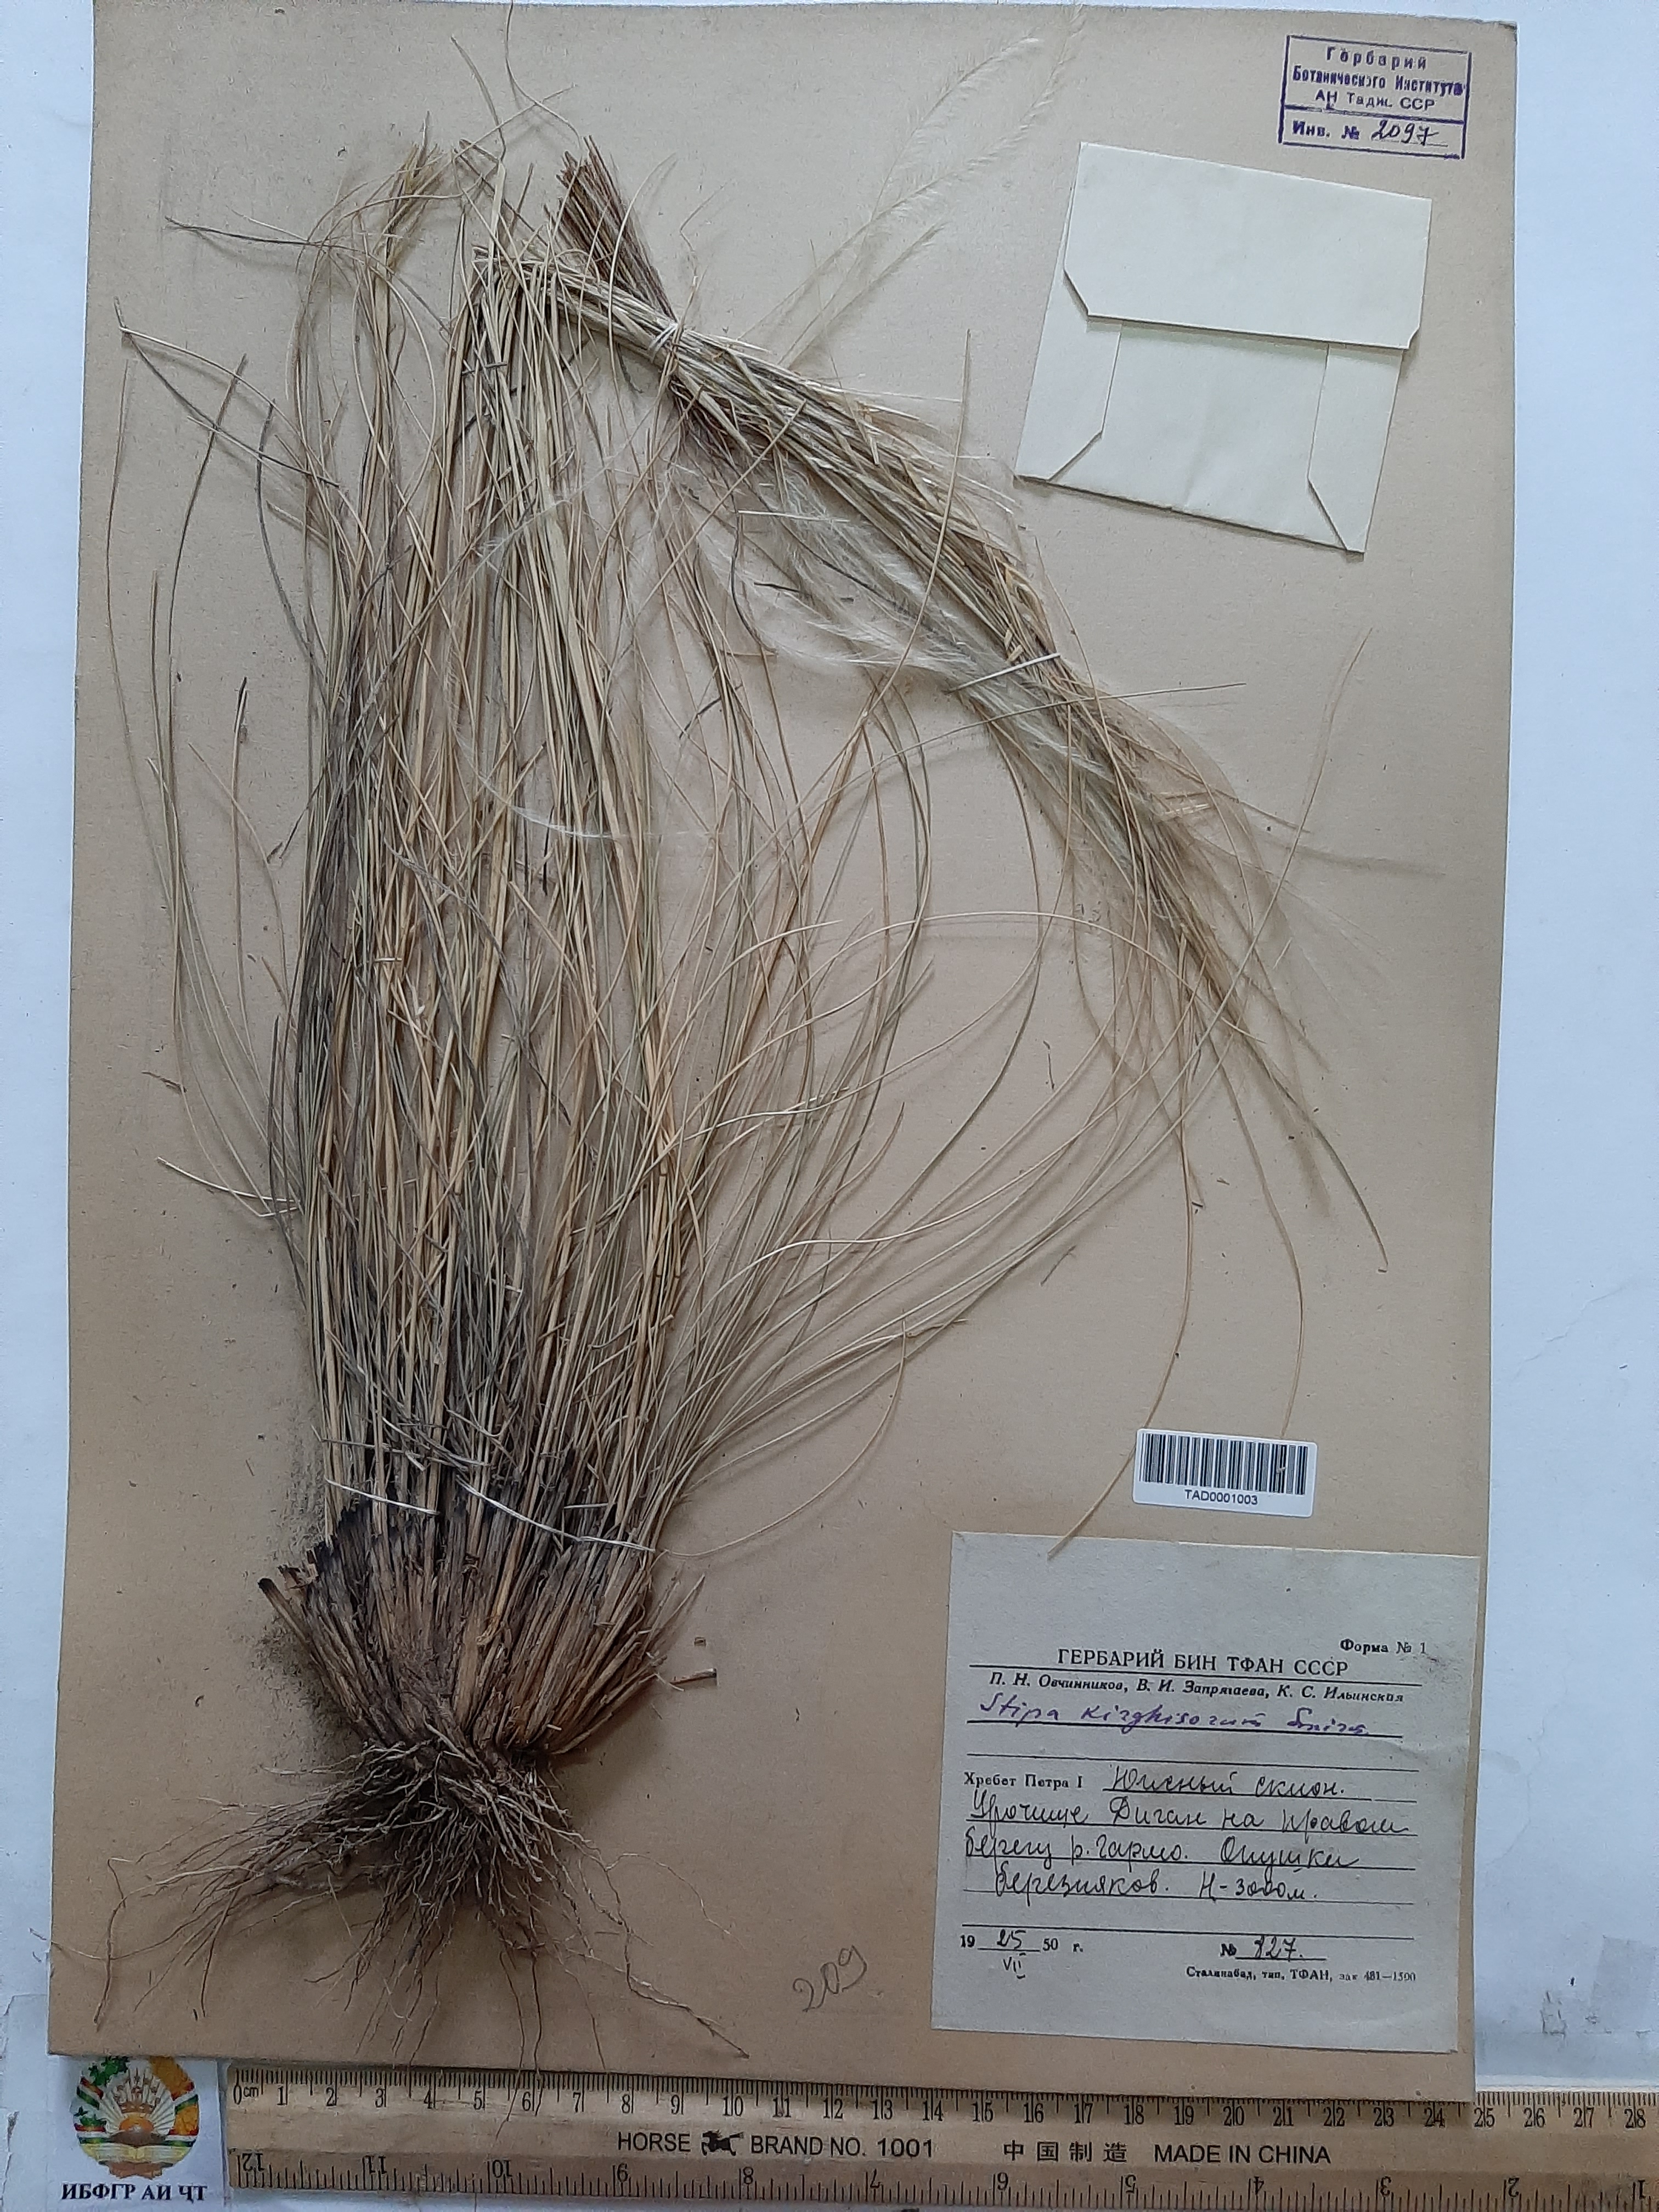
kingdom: Plantae
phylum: Tracheophyta
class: Liliopsida
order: Poales
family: Poaceae
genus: Stipa
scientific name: Stipa kirghisorum
